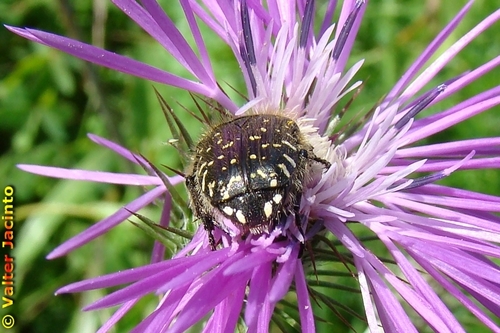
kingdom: Animalia
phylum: Arthropoda
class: Insecta
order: Coleoptera
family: Scarabaeidae
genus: Oxythyrea
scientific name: Oxythyrea funesta
